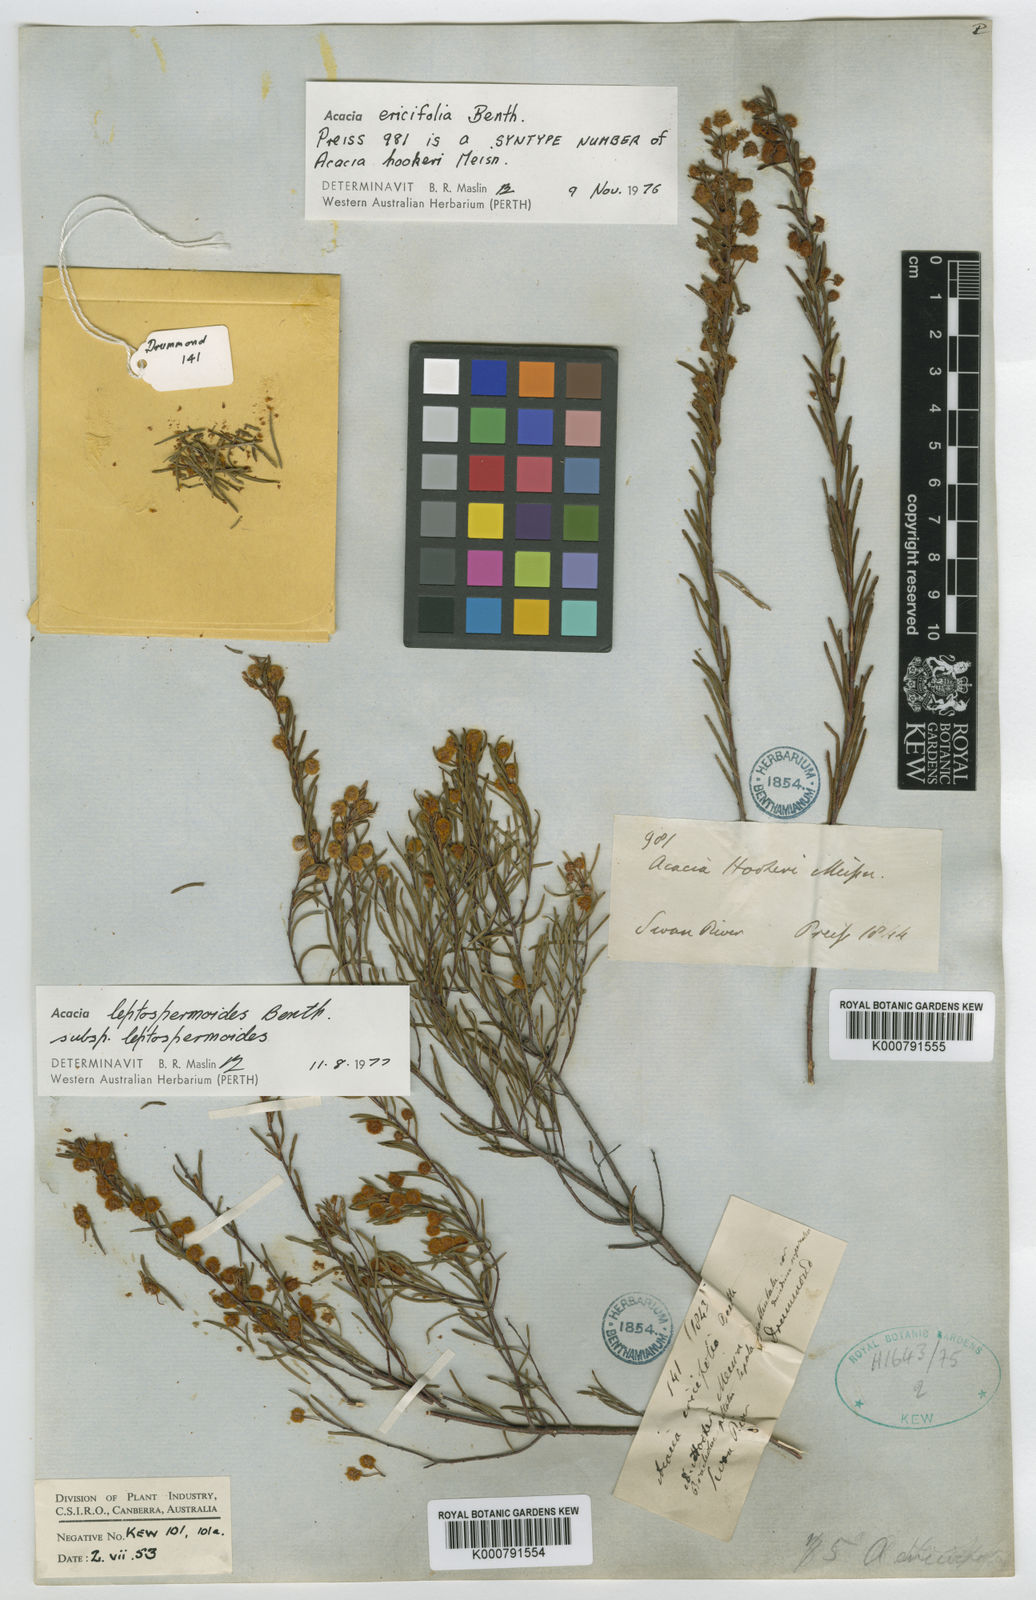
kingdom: Plantae
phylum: Tracheophyta
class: Magnoliopsida
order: Fabales
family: Fabaceae
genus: Acacia
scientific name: Acacia ericifolia
